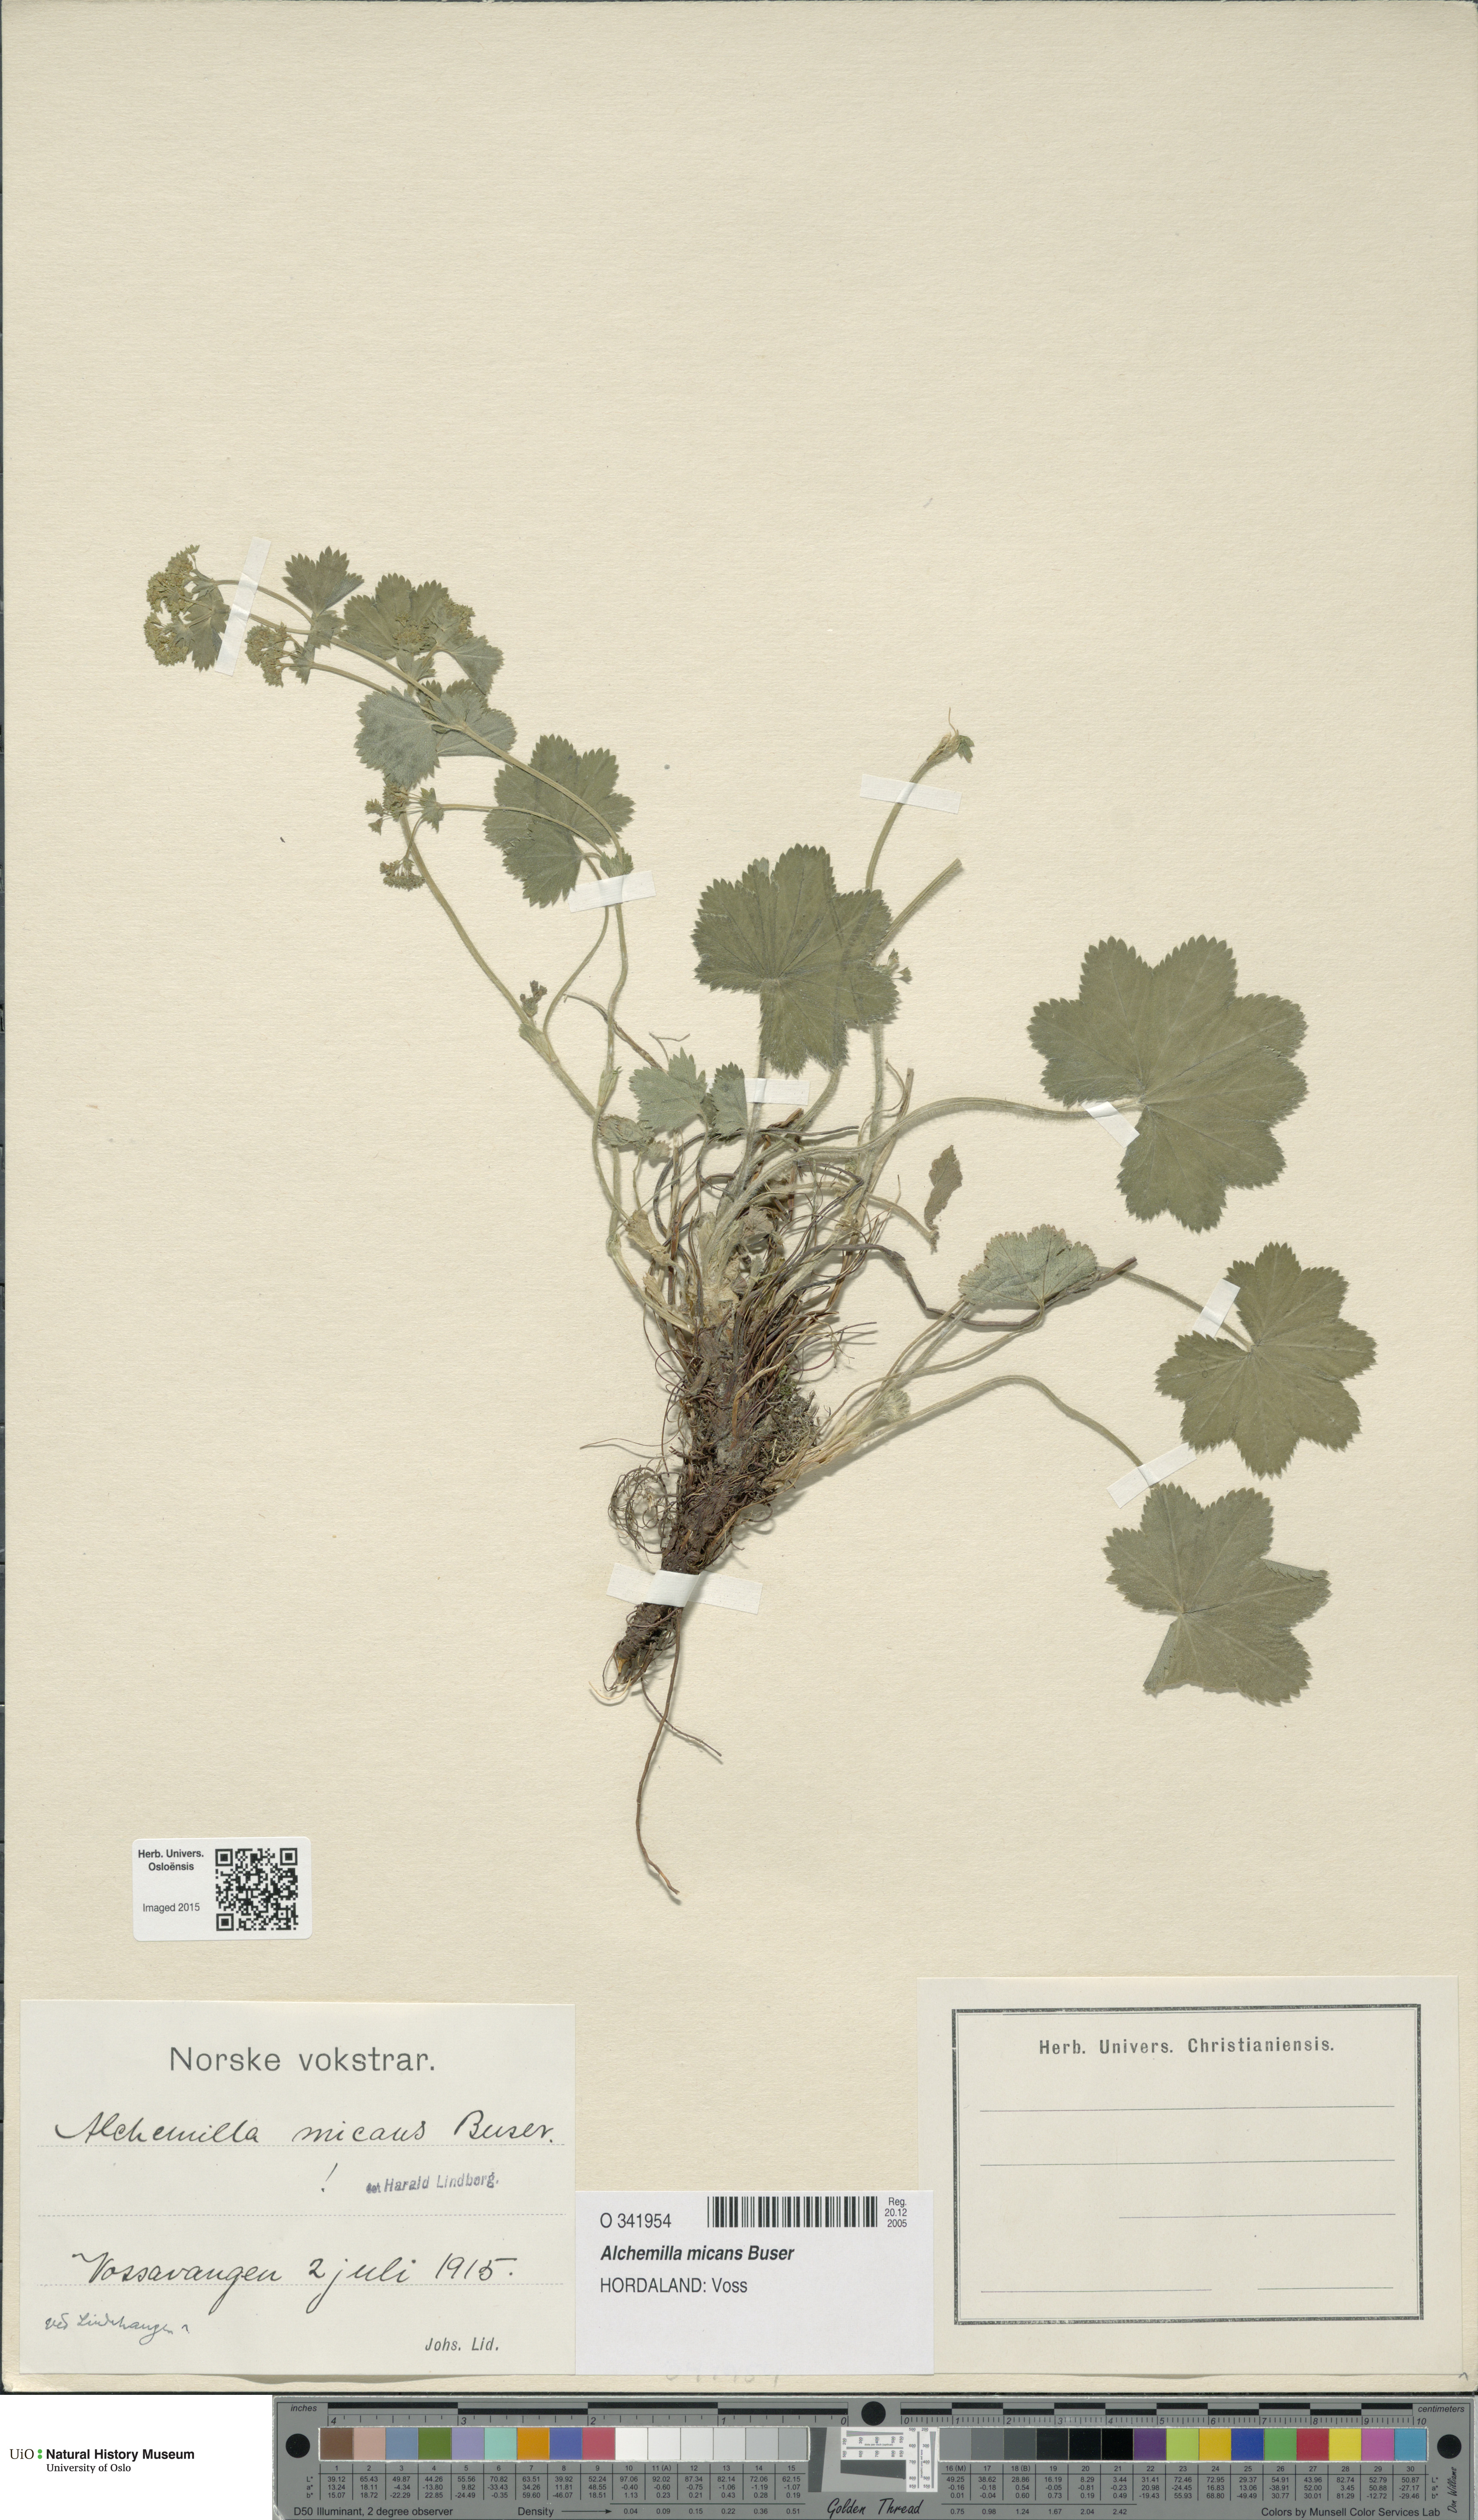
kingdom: Plantae
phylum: Tracheophyta
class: Magnoliopsida
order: Rosales
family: Rosaceae
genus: Alchemilla
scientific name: Alchemilla micans
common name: Gleaming lady's mantle
